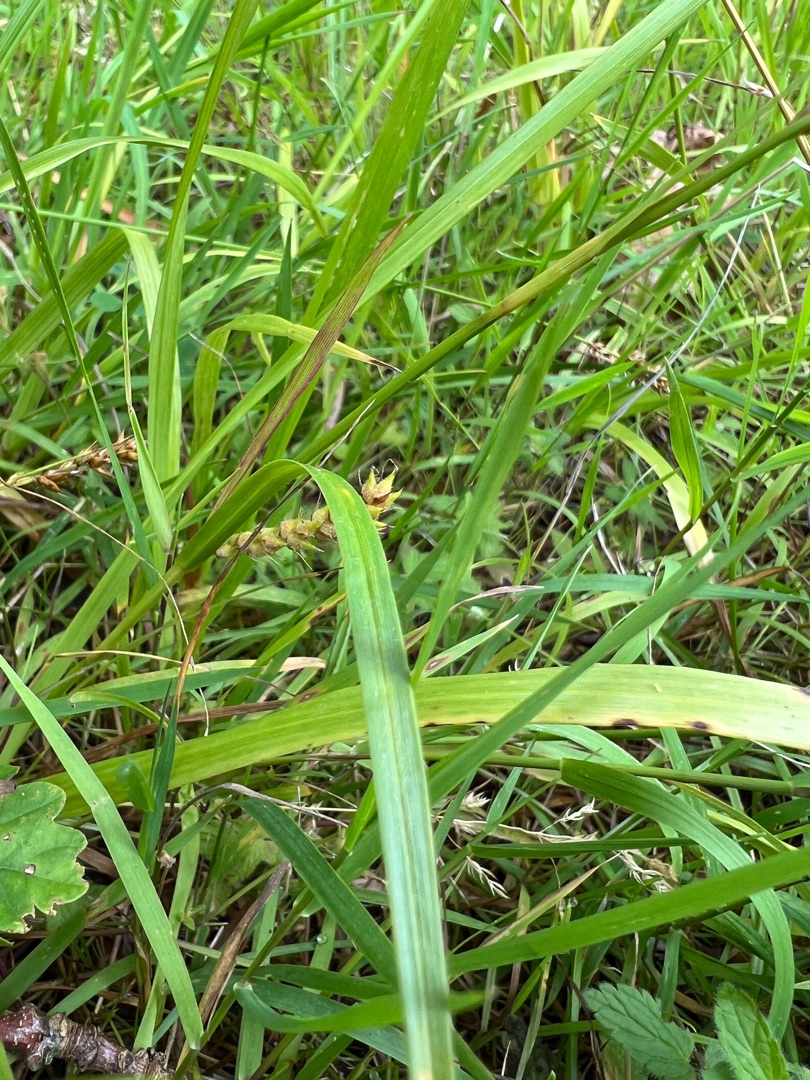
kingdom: Plantae
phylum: Tracheophyta
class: Liliopsida
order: Poales
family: Cyperaceae
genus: Carex
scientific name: Carex hirta
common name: Håret star
